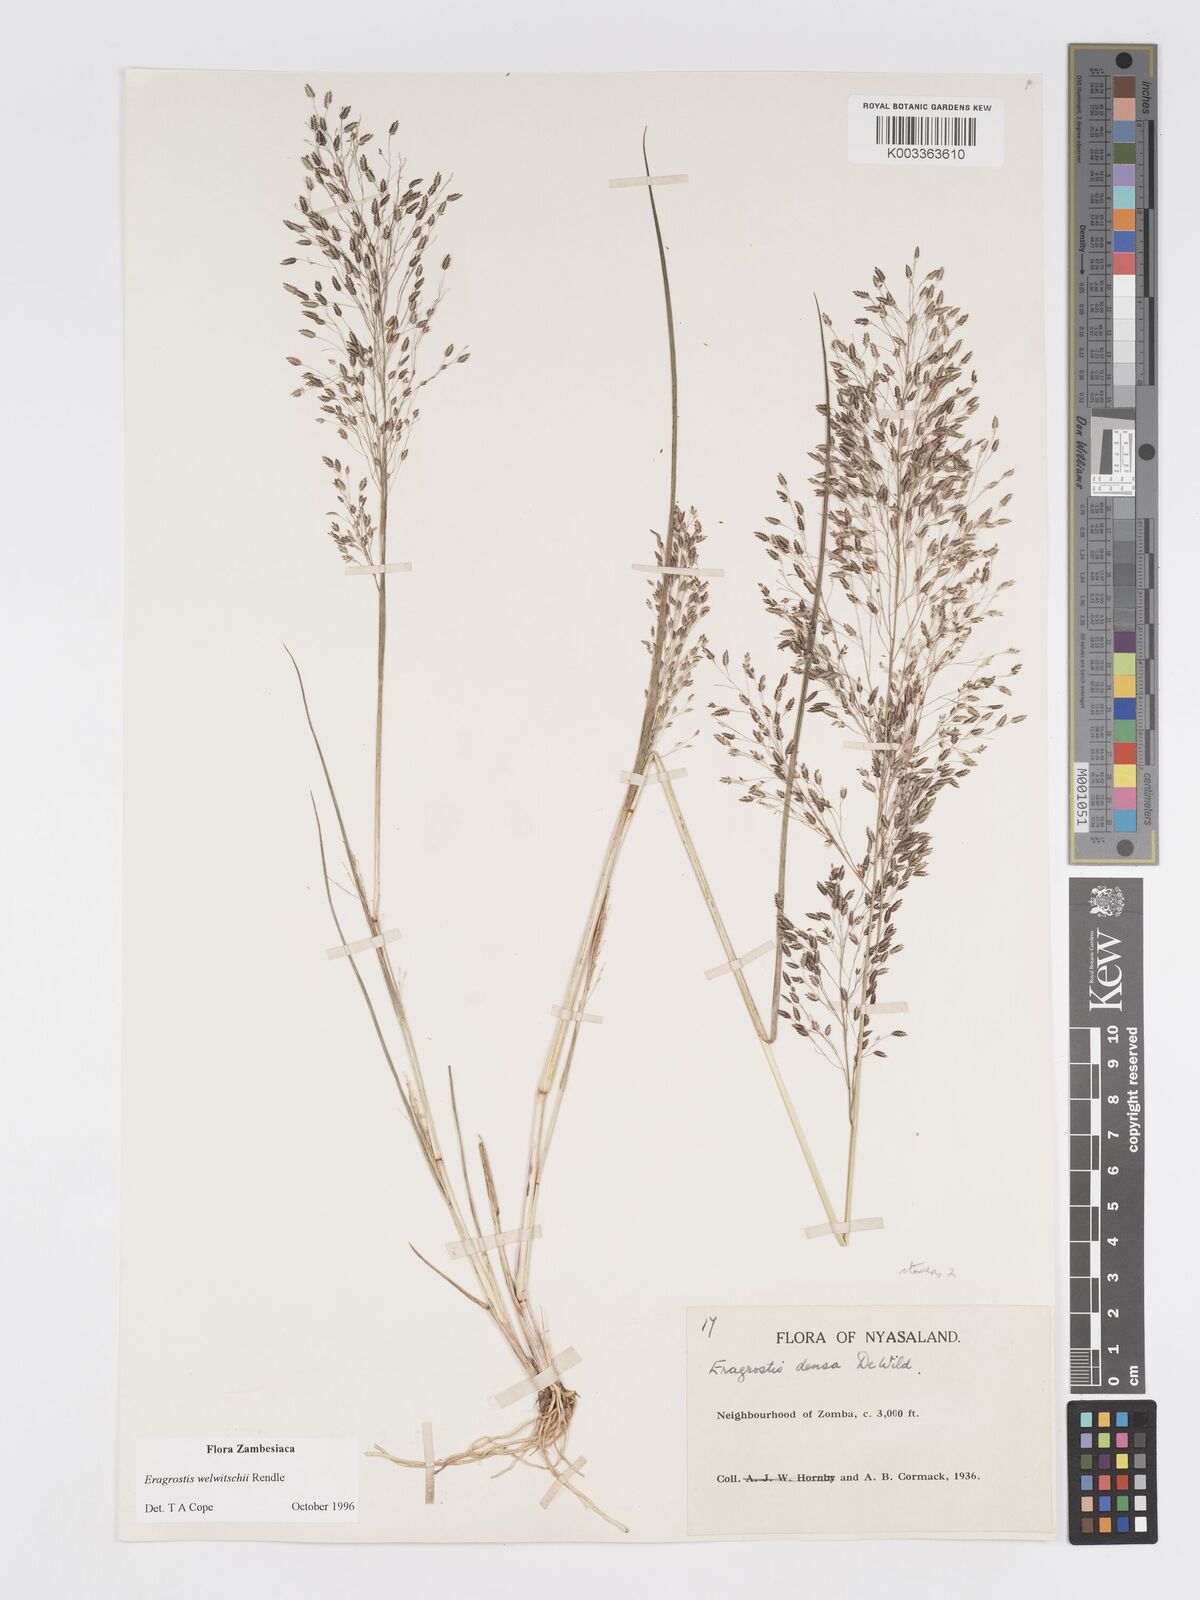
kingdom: Plantae
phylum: Tracheophyta
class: Liliopsida
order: Poales
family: Poaceae
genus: Eragrostis
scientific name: Eragrostis welwitschii
